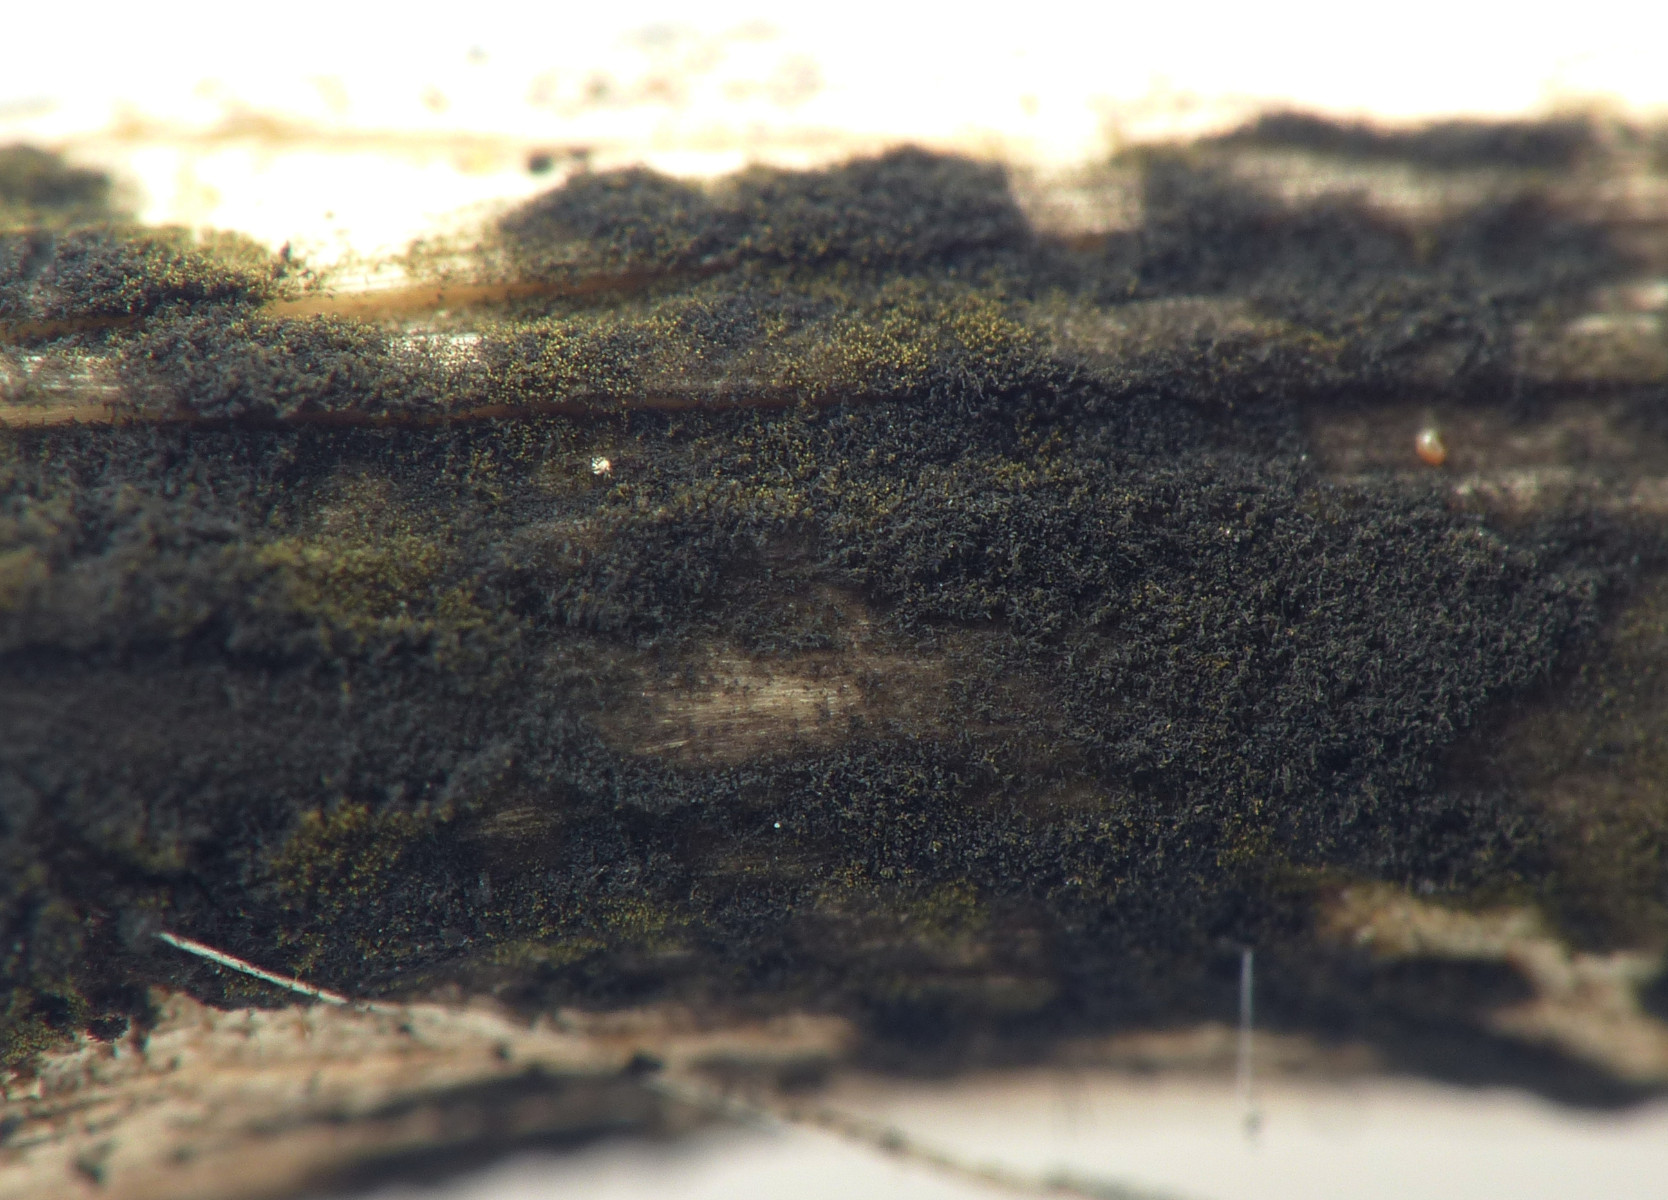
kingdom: Fungi
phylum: Ascomycota
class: Dothideomycetes
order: Pleosporales
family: Torulaceae
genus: Torula
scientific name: Torula herbarum
